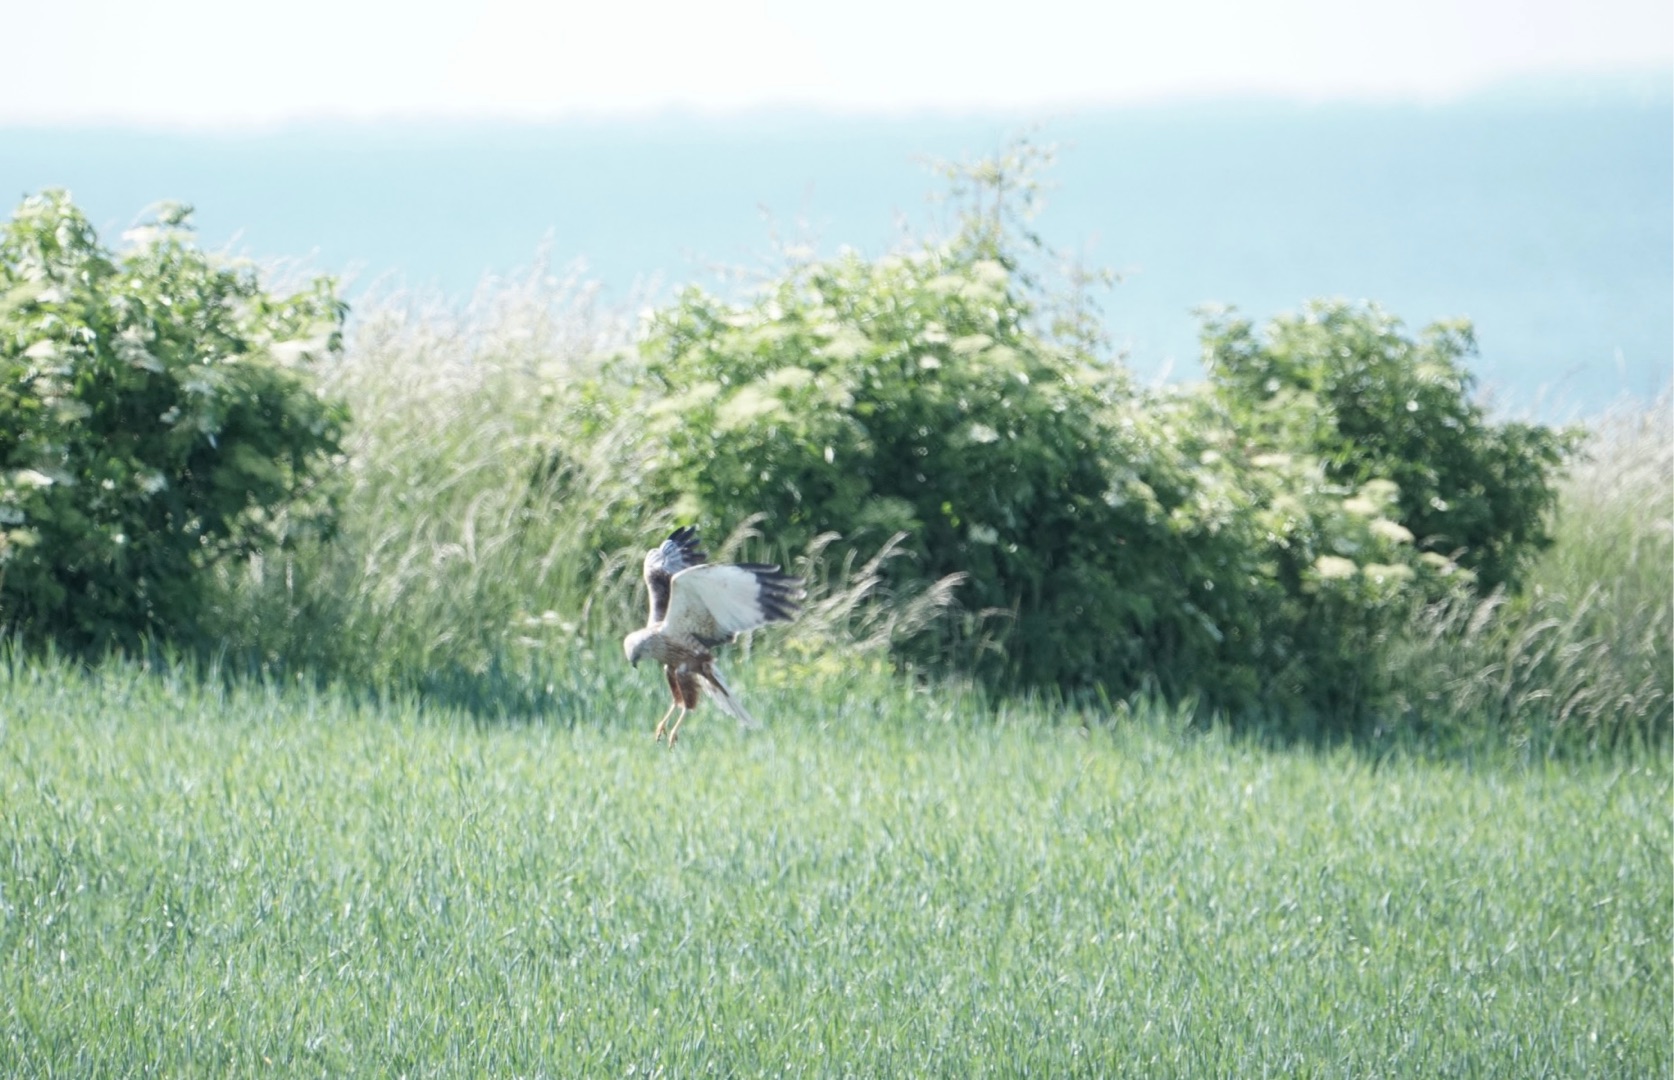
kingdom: Animalia
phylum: Chordata
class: Aves
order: Accipitriformes
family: Accipitridae
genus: Circus
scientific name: Circus aeruginosus
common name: Rørhøg
